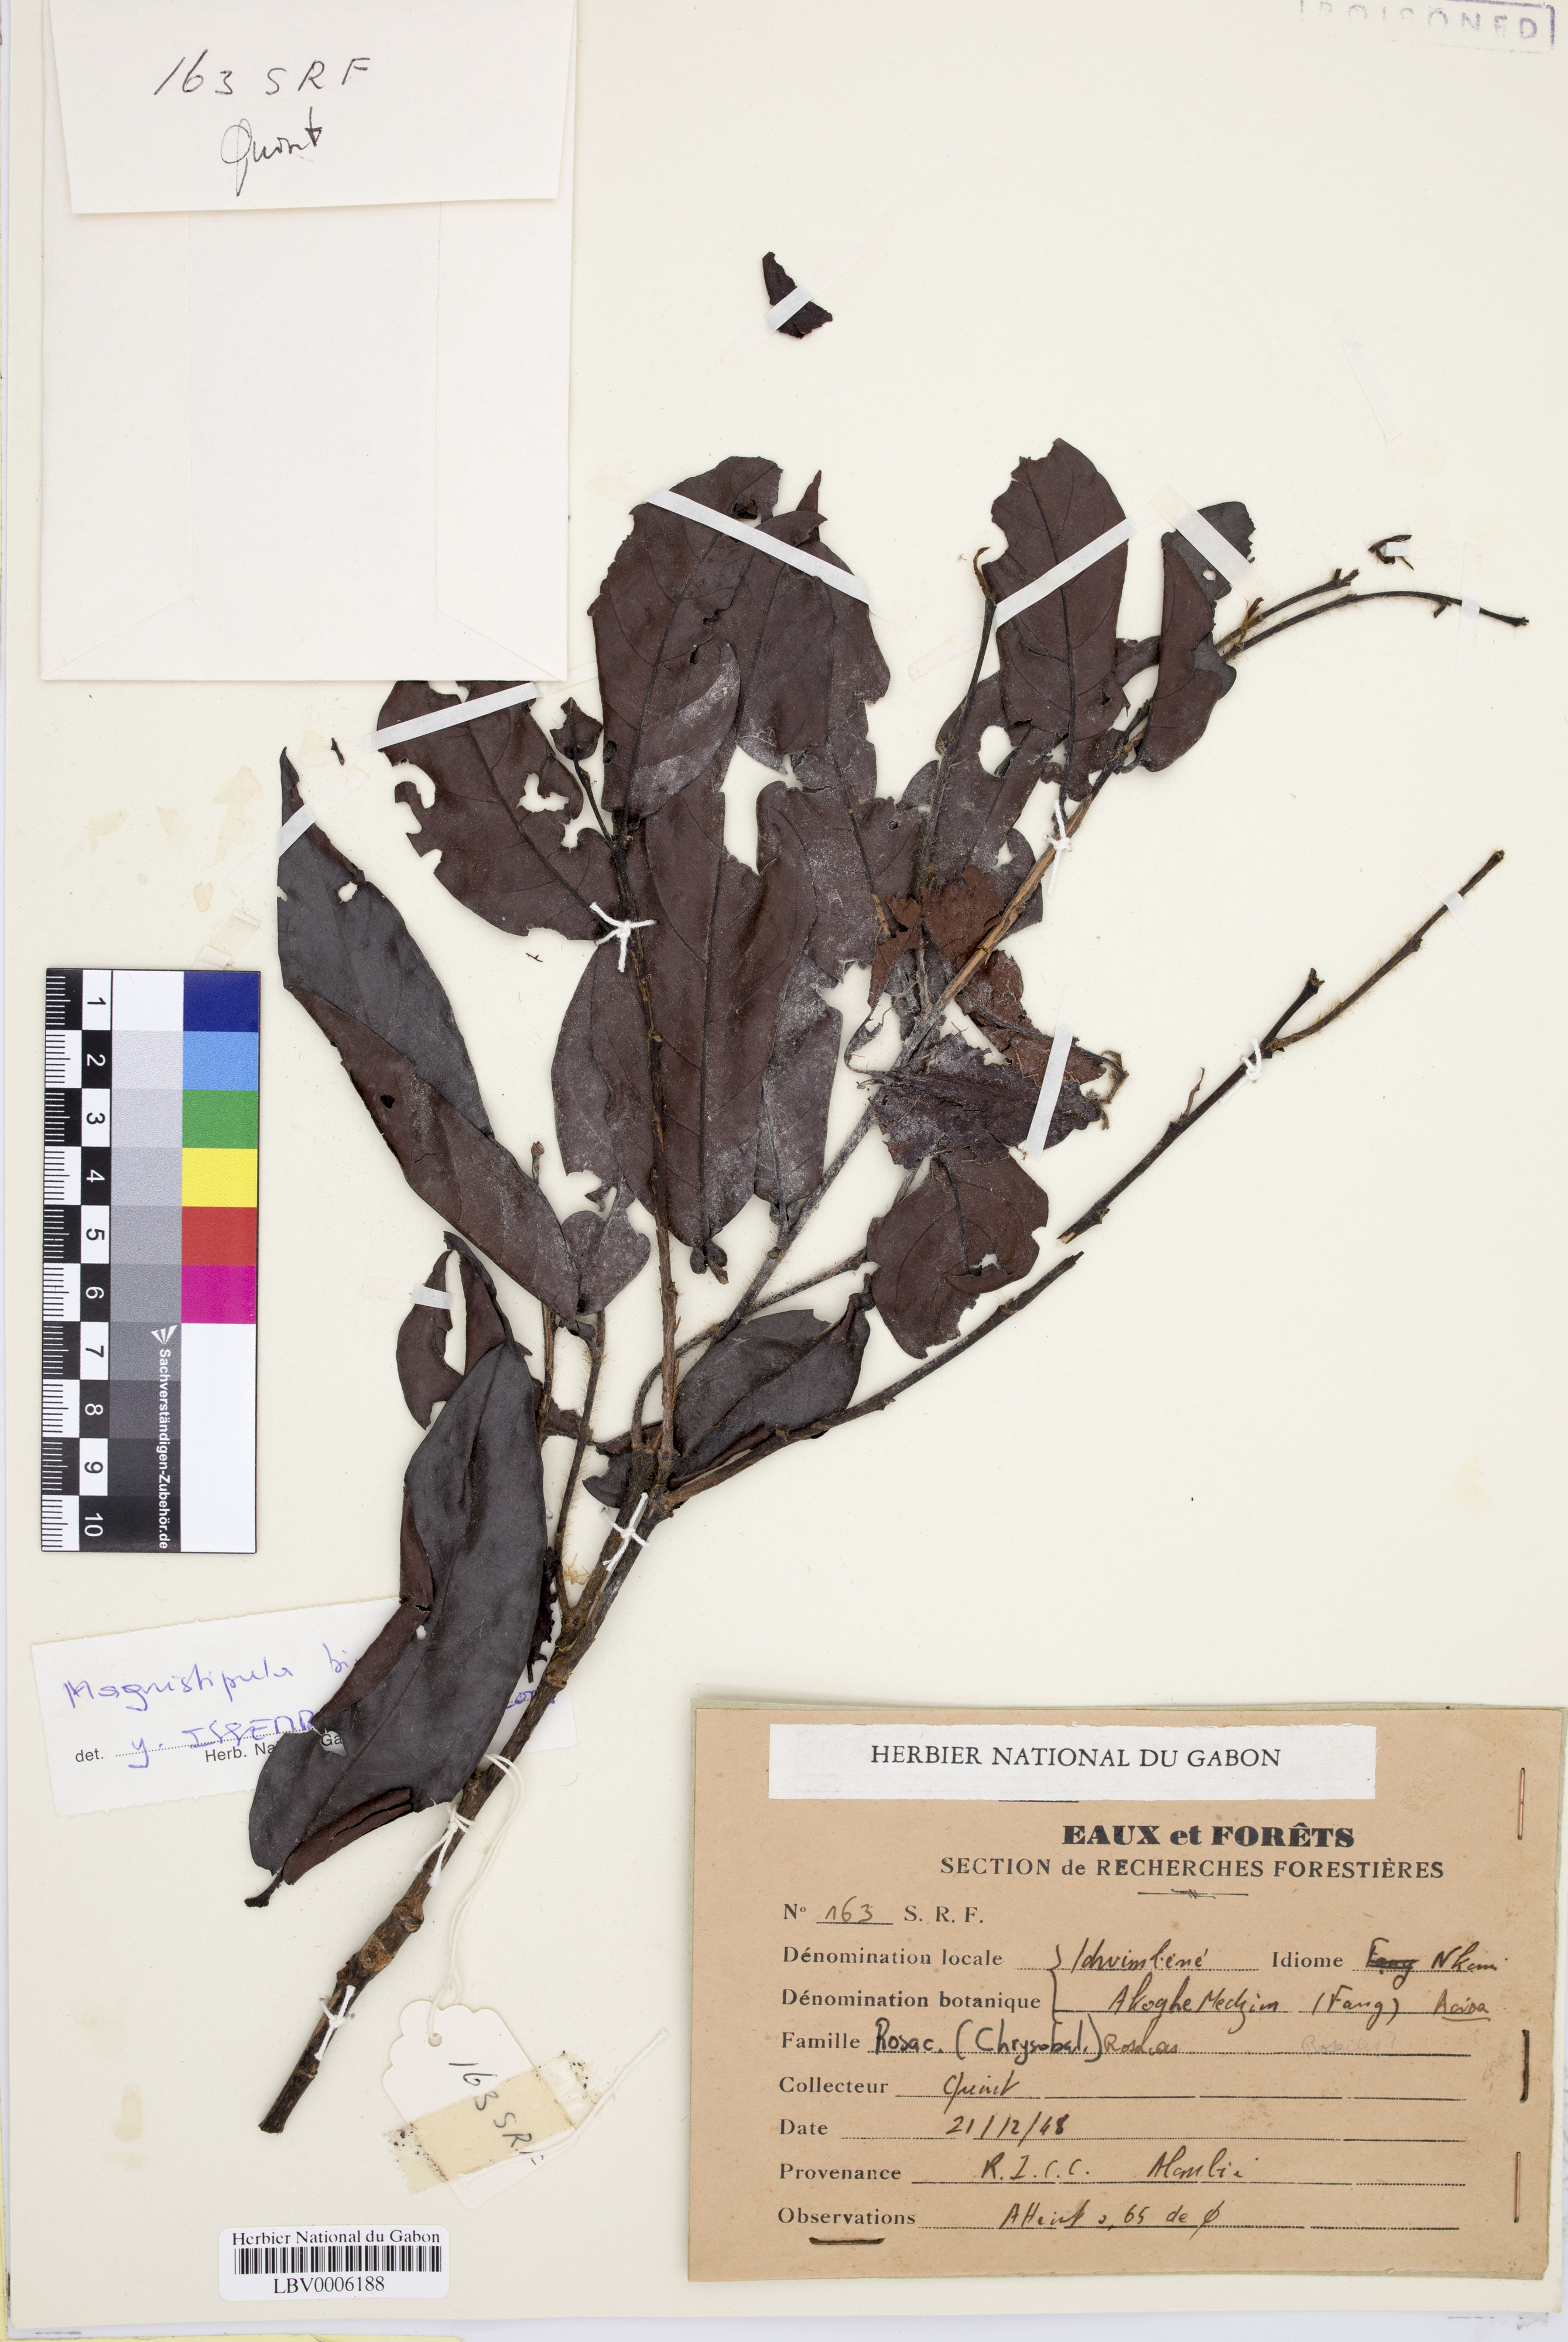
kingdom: Plantae
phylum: Tracheophyta
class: Magnoliopsida
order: Malpighiales
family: Chrysobalanaceae
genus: Magnistipula
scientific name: Magnistipula bimarsupiata
